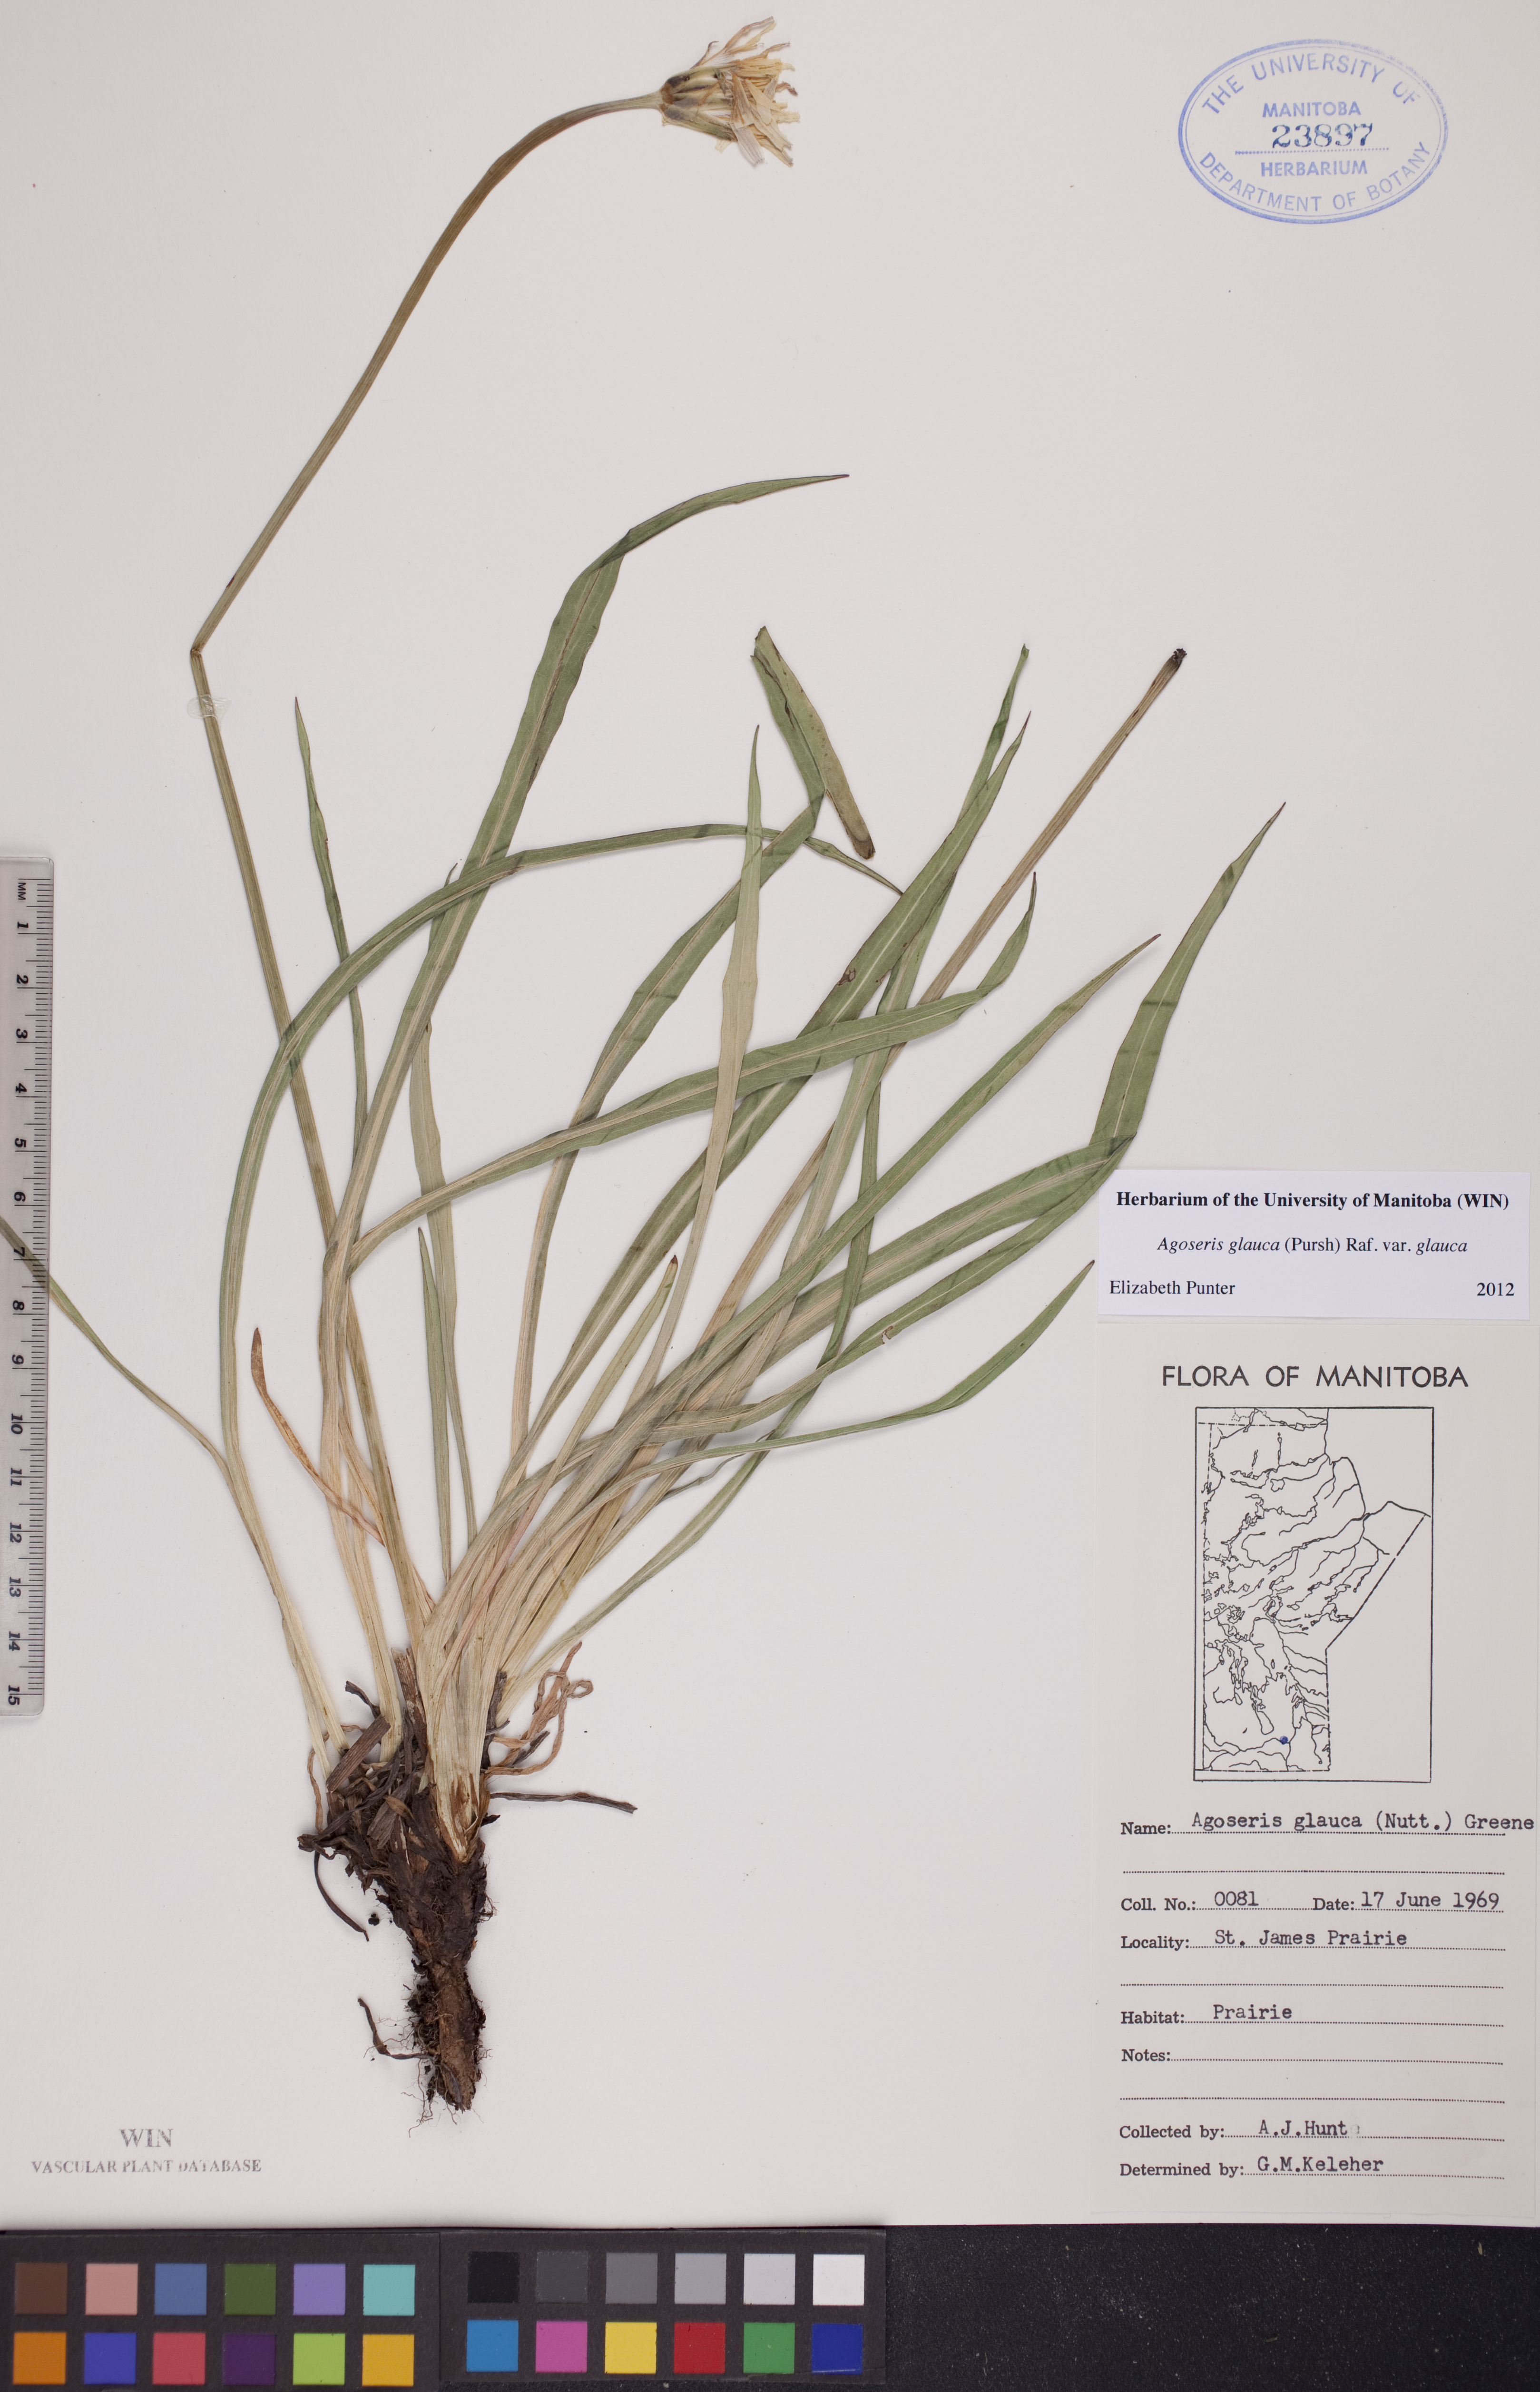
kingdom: Plantae
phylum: Tracheophyta
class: Magnoliopsida
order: Asterales
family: Asteraceae
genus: Agoseris
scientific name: Agoseris glauca
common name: Prairie agoseris
